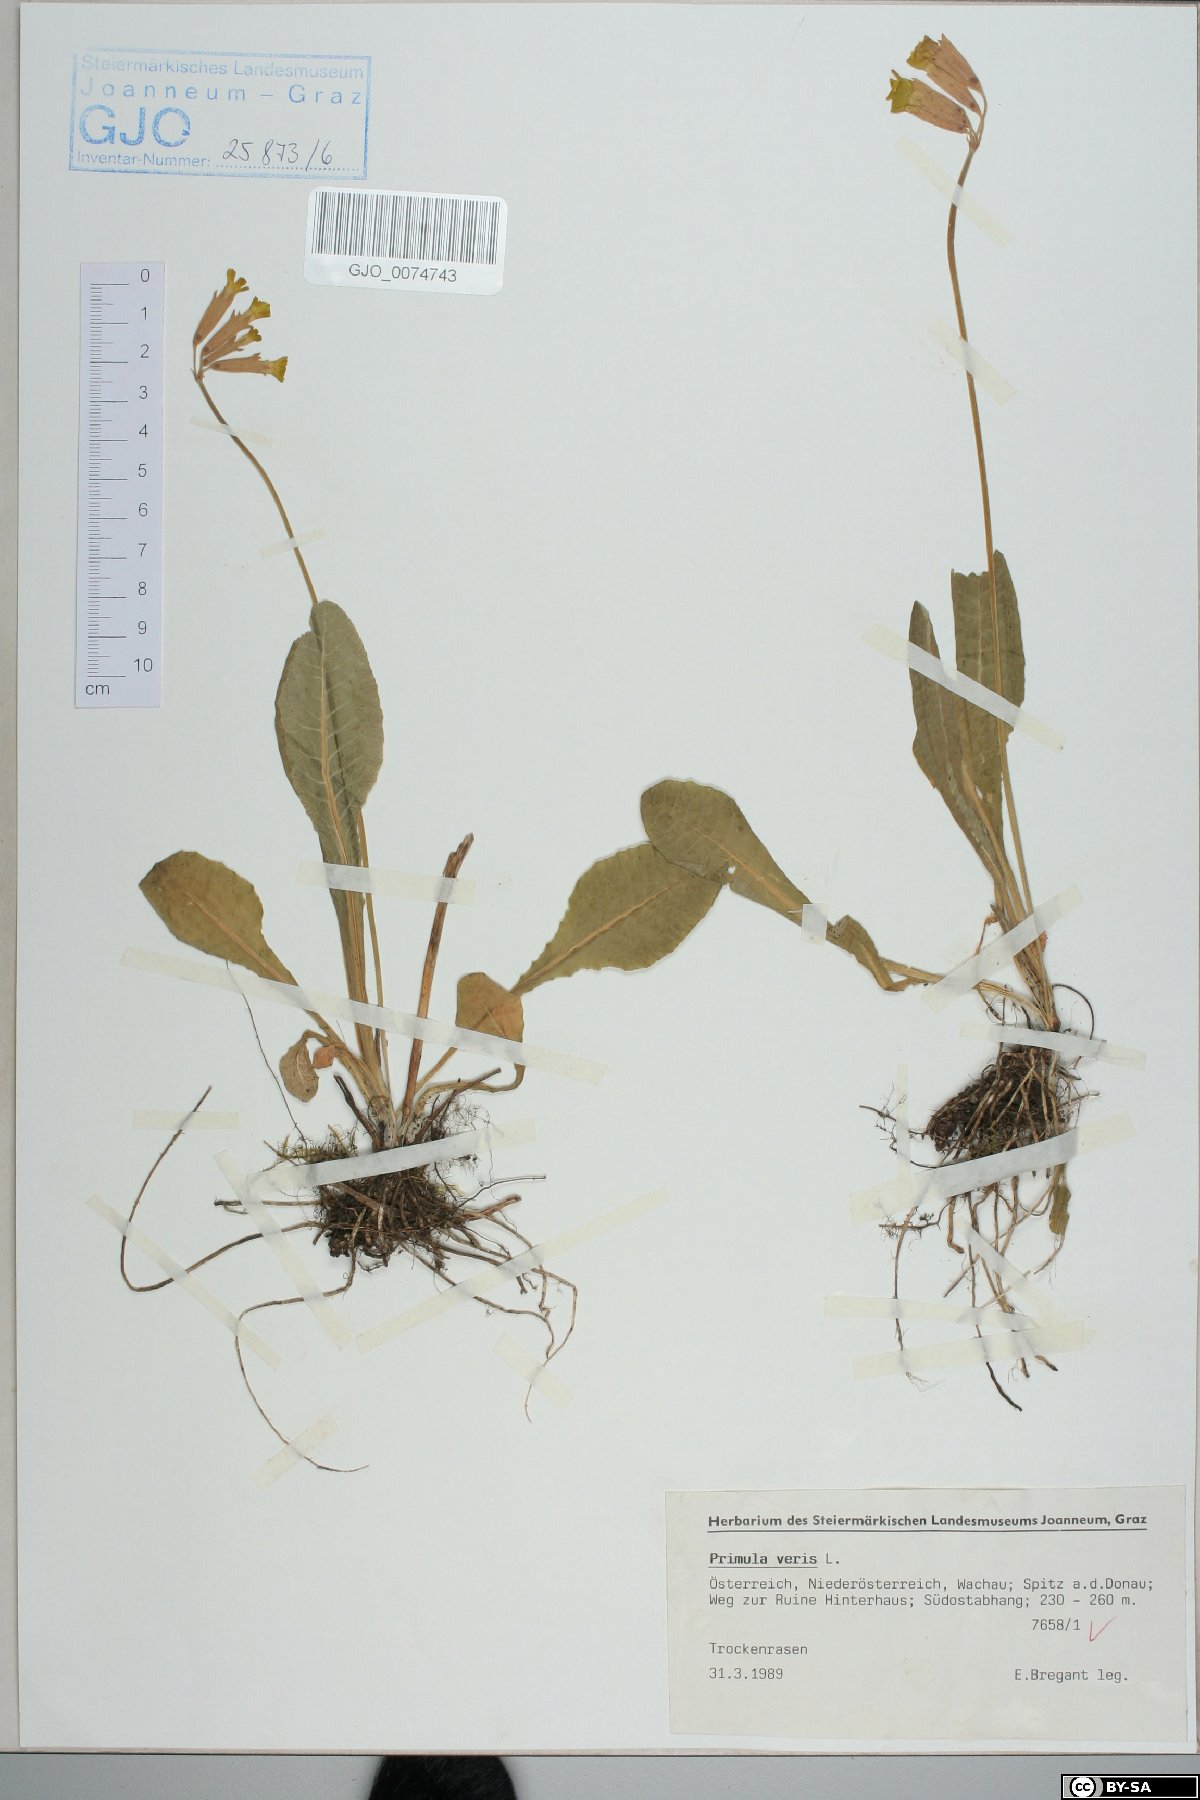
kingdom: Plantae
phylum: Tracheophyta
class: Magnoliopsida
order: Ericales
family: Primulaceae
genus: Primula
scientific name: Primula veris
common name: Cowslip
